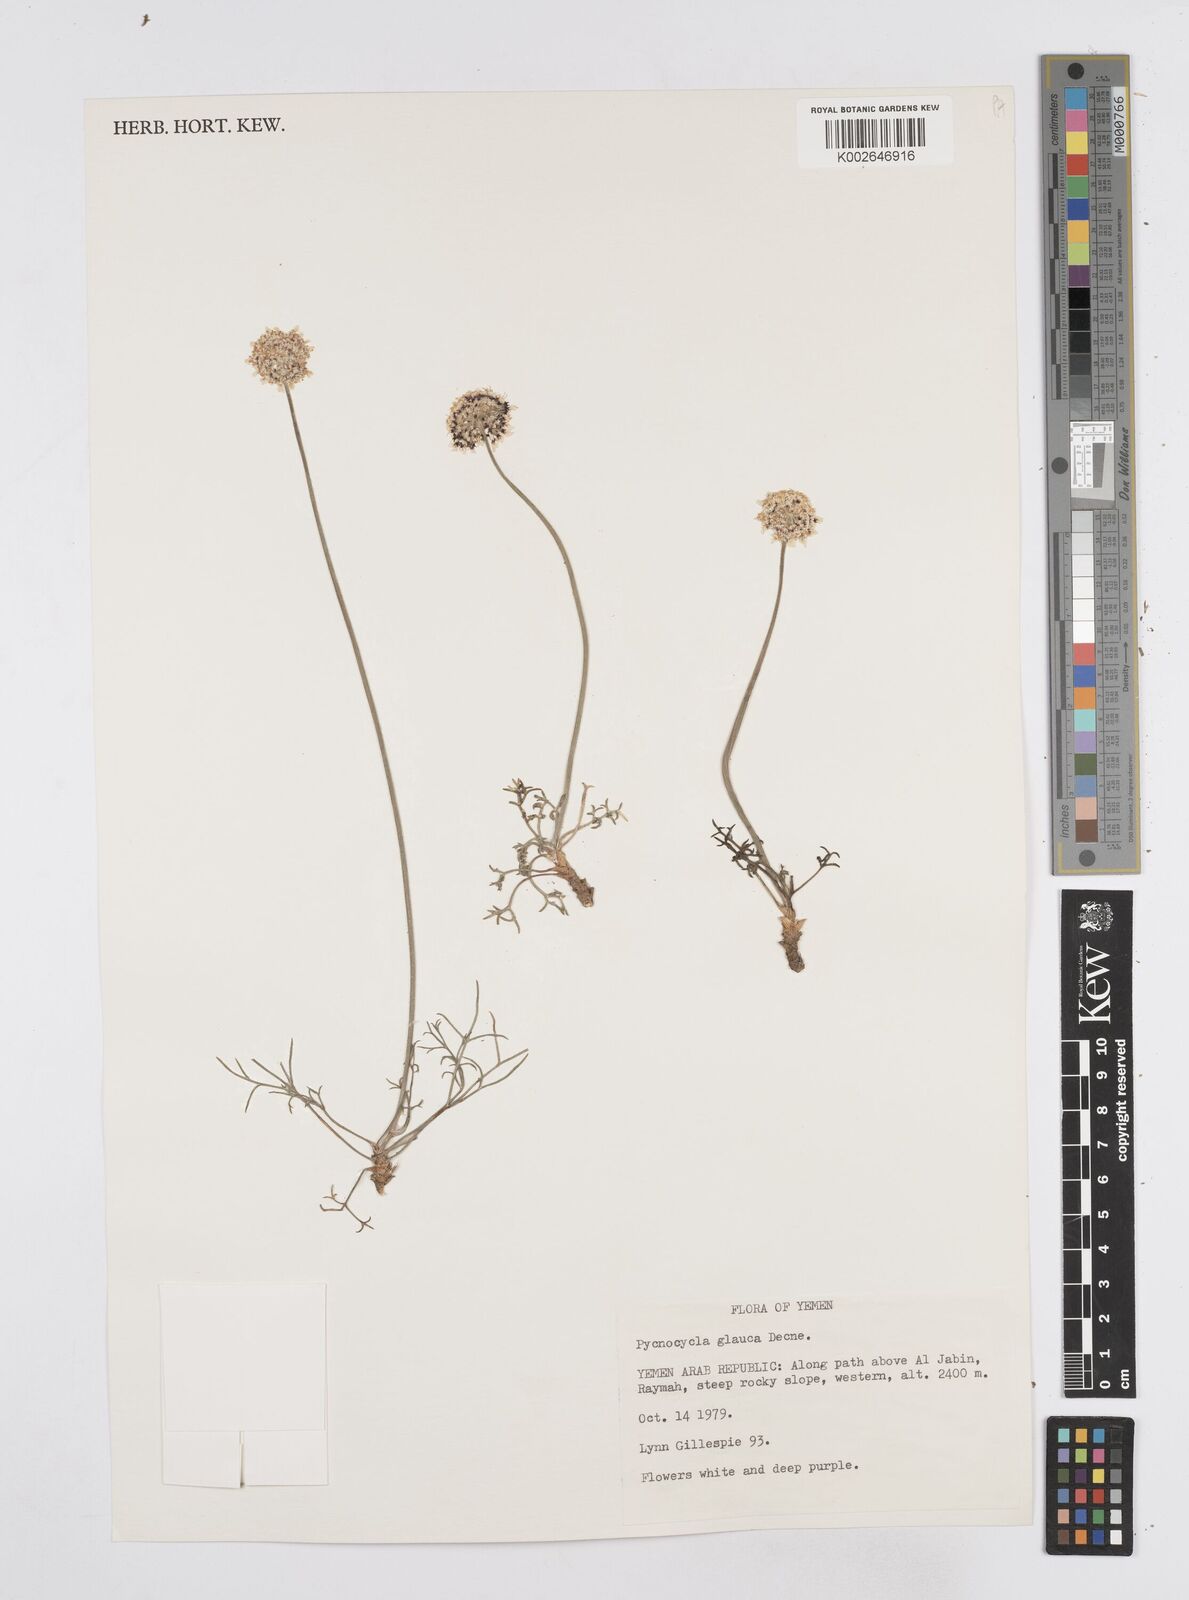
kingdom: Plantae
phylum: Tracheophyta
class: Magnoliopsida
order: Apiales
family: Apiaceae
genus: Pycnocycla
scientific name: Pycnocycla glauca
